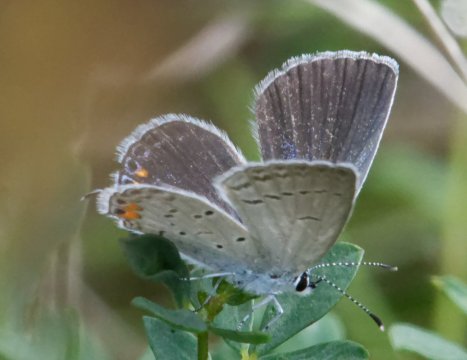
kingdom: Animalia
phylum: Arthropoda
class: Insecta
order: Lepidoptera
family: Lycaenidae
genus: Elkalyce
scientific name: Elkalyce comyntas
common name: Eastern Tailed-Blue
